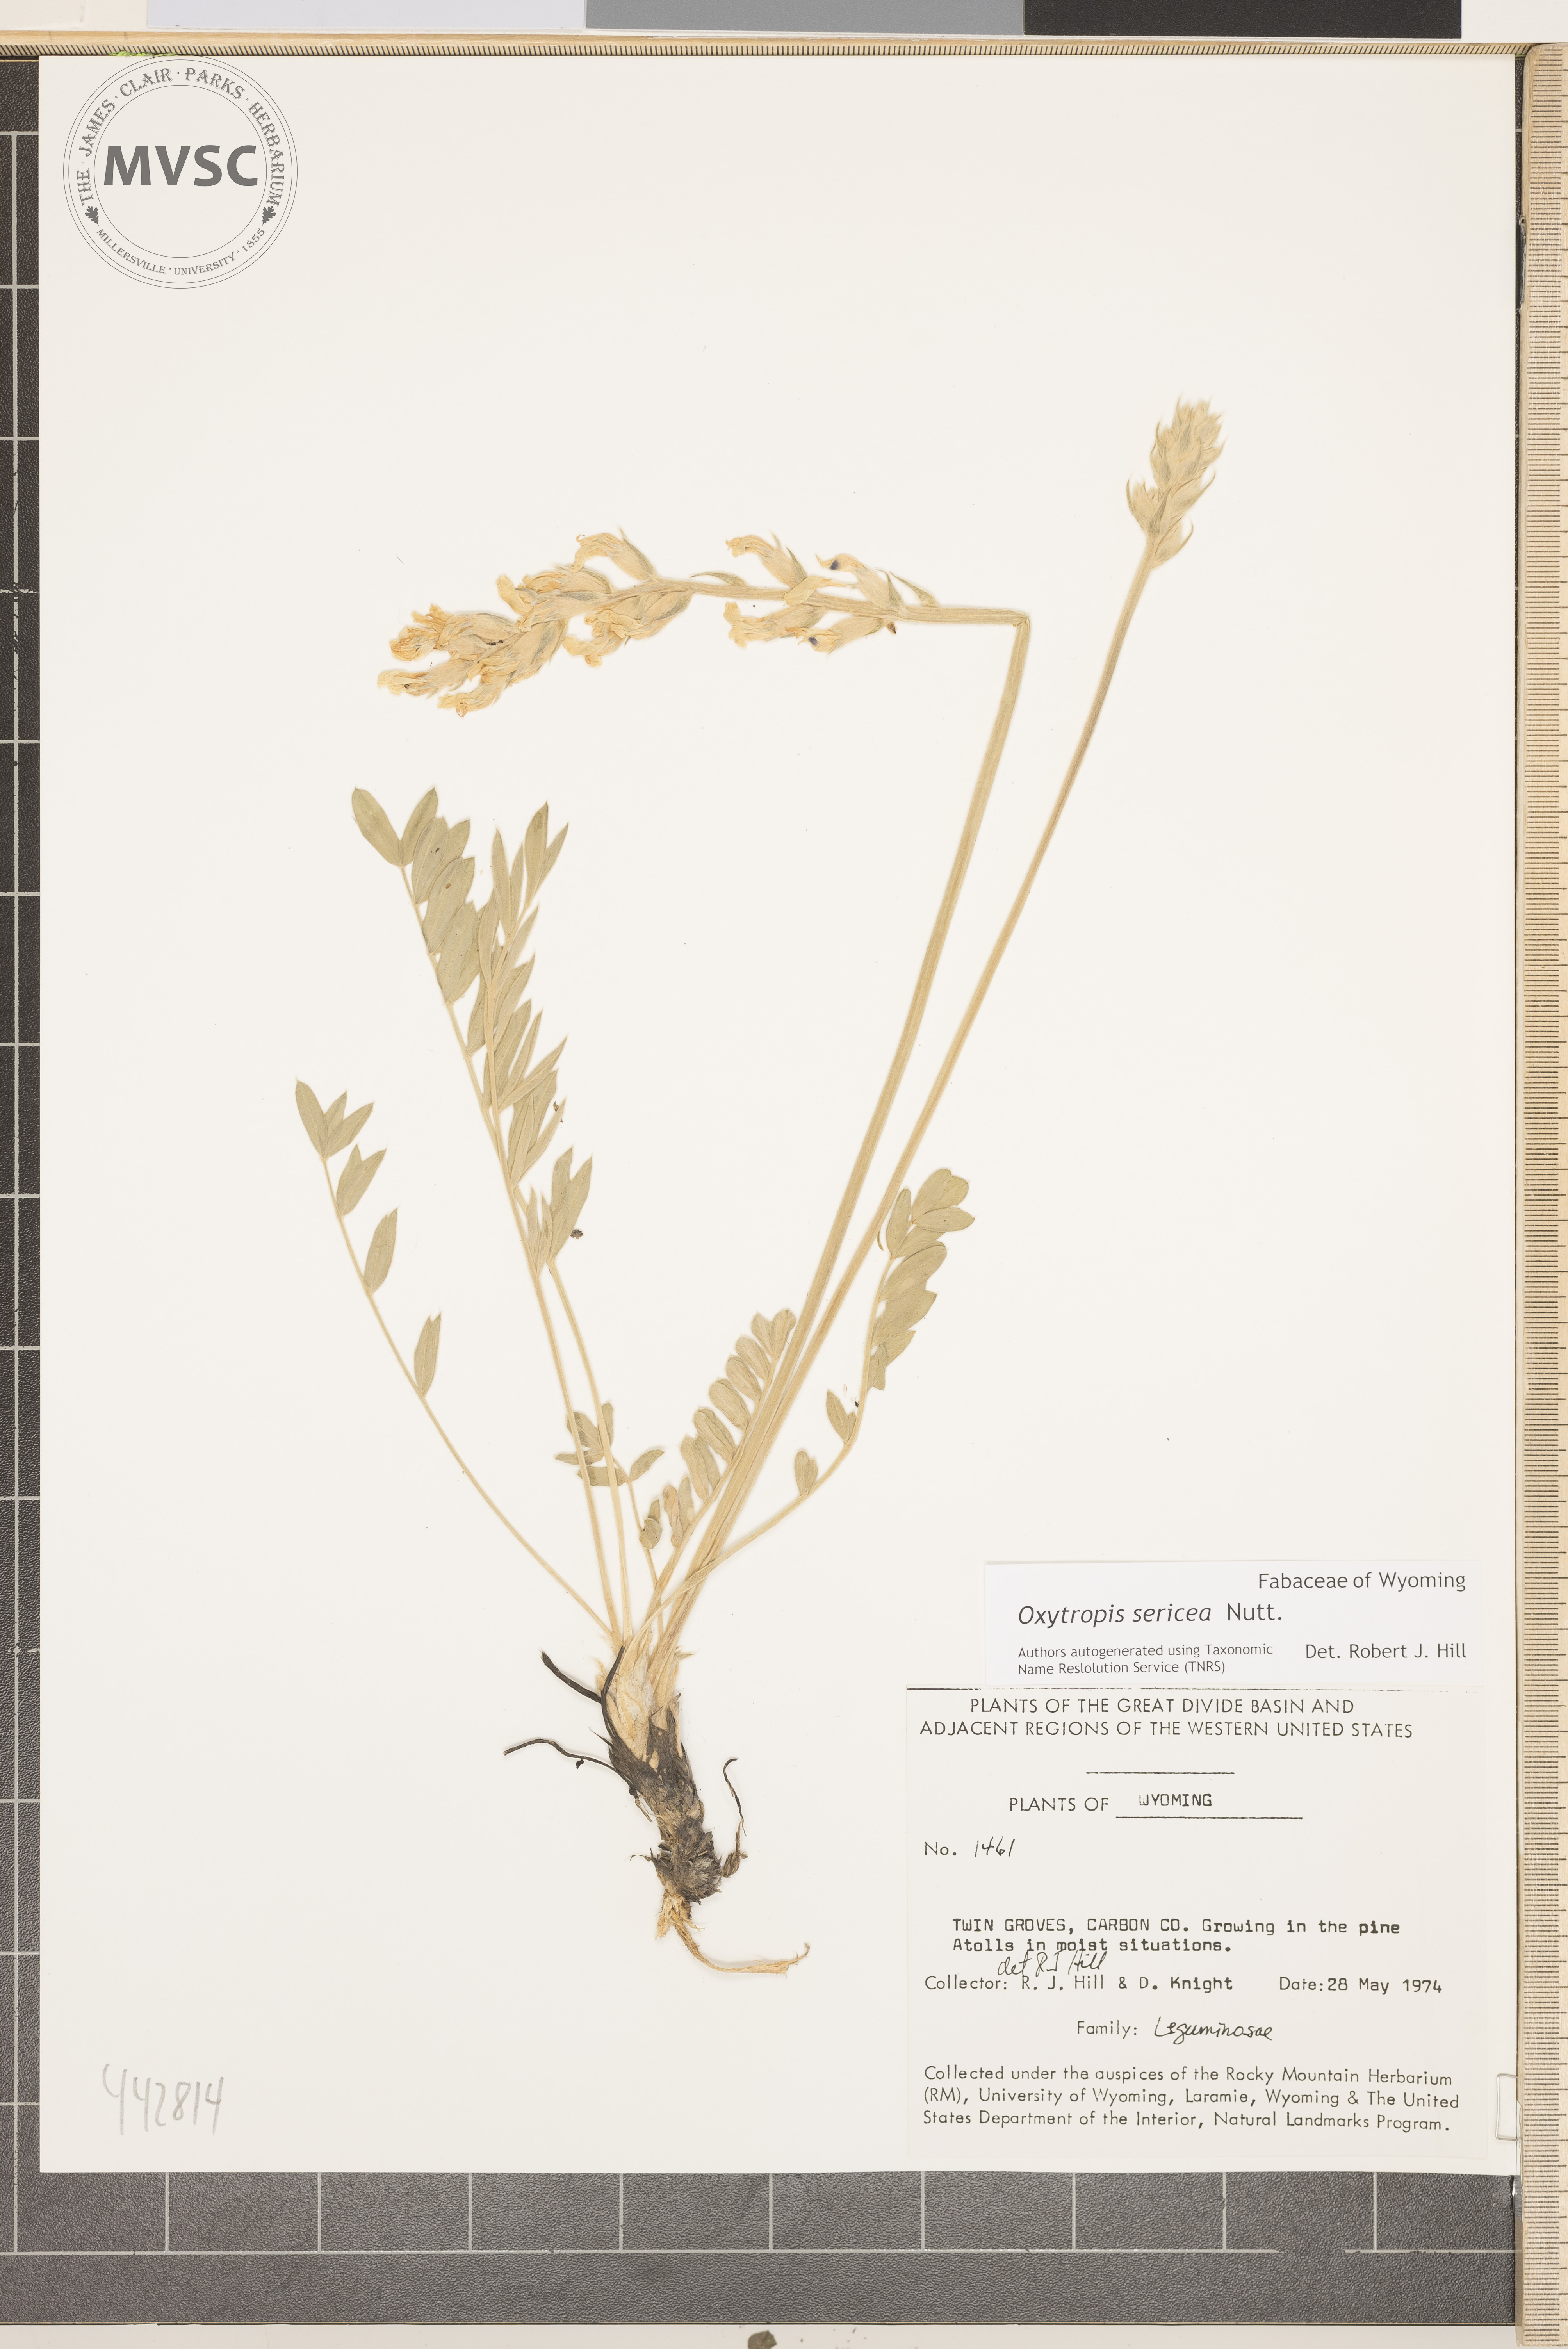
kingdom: Plantae
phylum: Tracheophyta
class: Magnoliopsida
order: Fabales
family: Fabaceae
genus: Oxytropis
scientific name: Oxytropis sericea
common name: Silky locoweed
